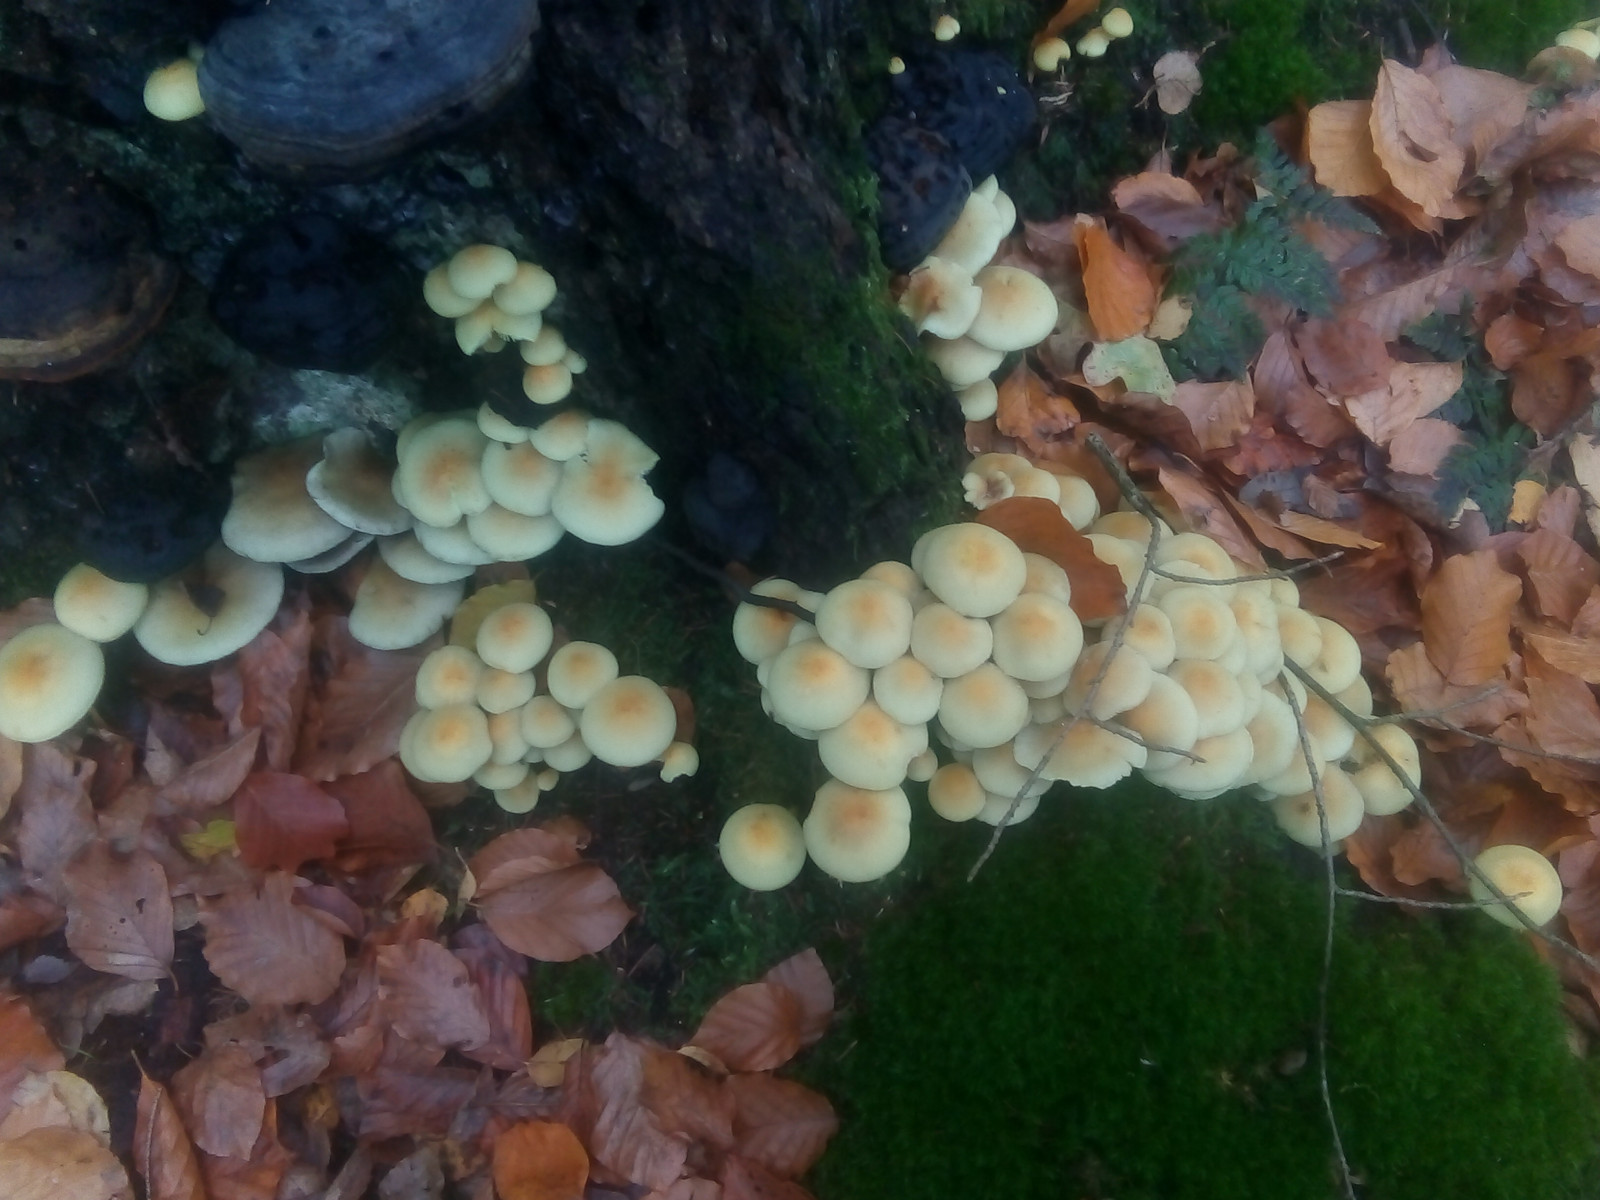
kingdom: Fungi
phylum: Basidiomycota
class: Agaricomycetes
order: Agaricales
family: Strophariaceae
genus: Hypholoma
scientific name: Hypholoma fasciculare
